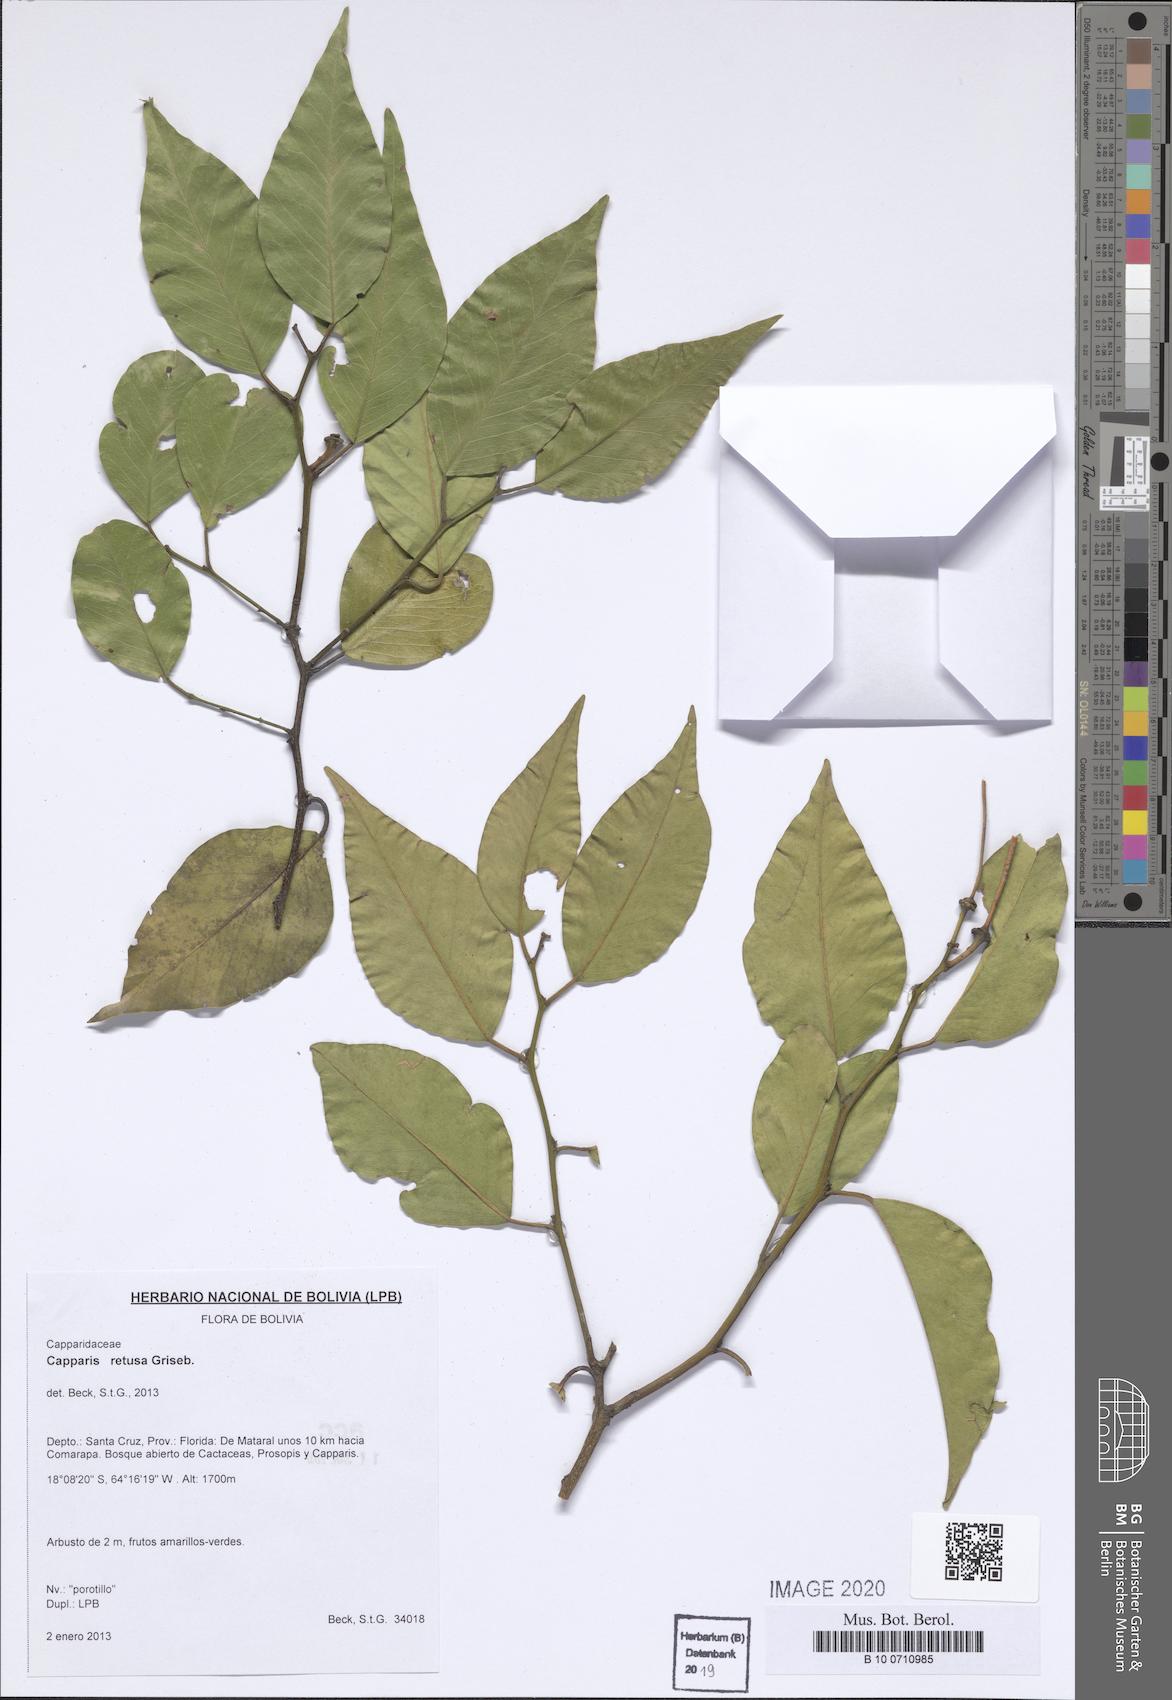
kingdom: Plantae
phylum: Tracheophyta
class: Magnoliopsida
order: Brassicales
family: Capparaceae
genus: Cynophalla
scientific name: Cynophalla retusa
